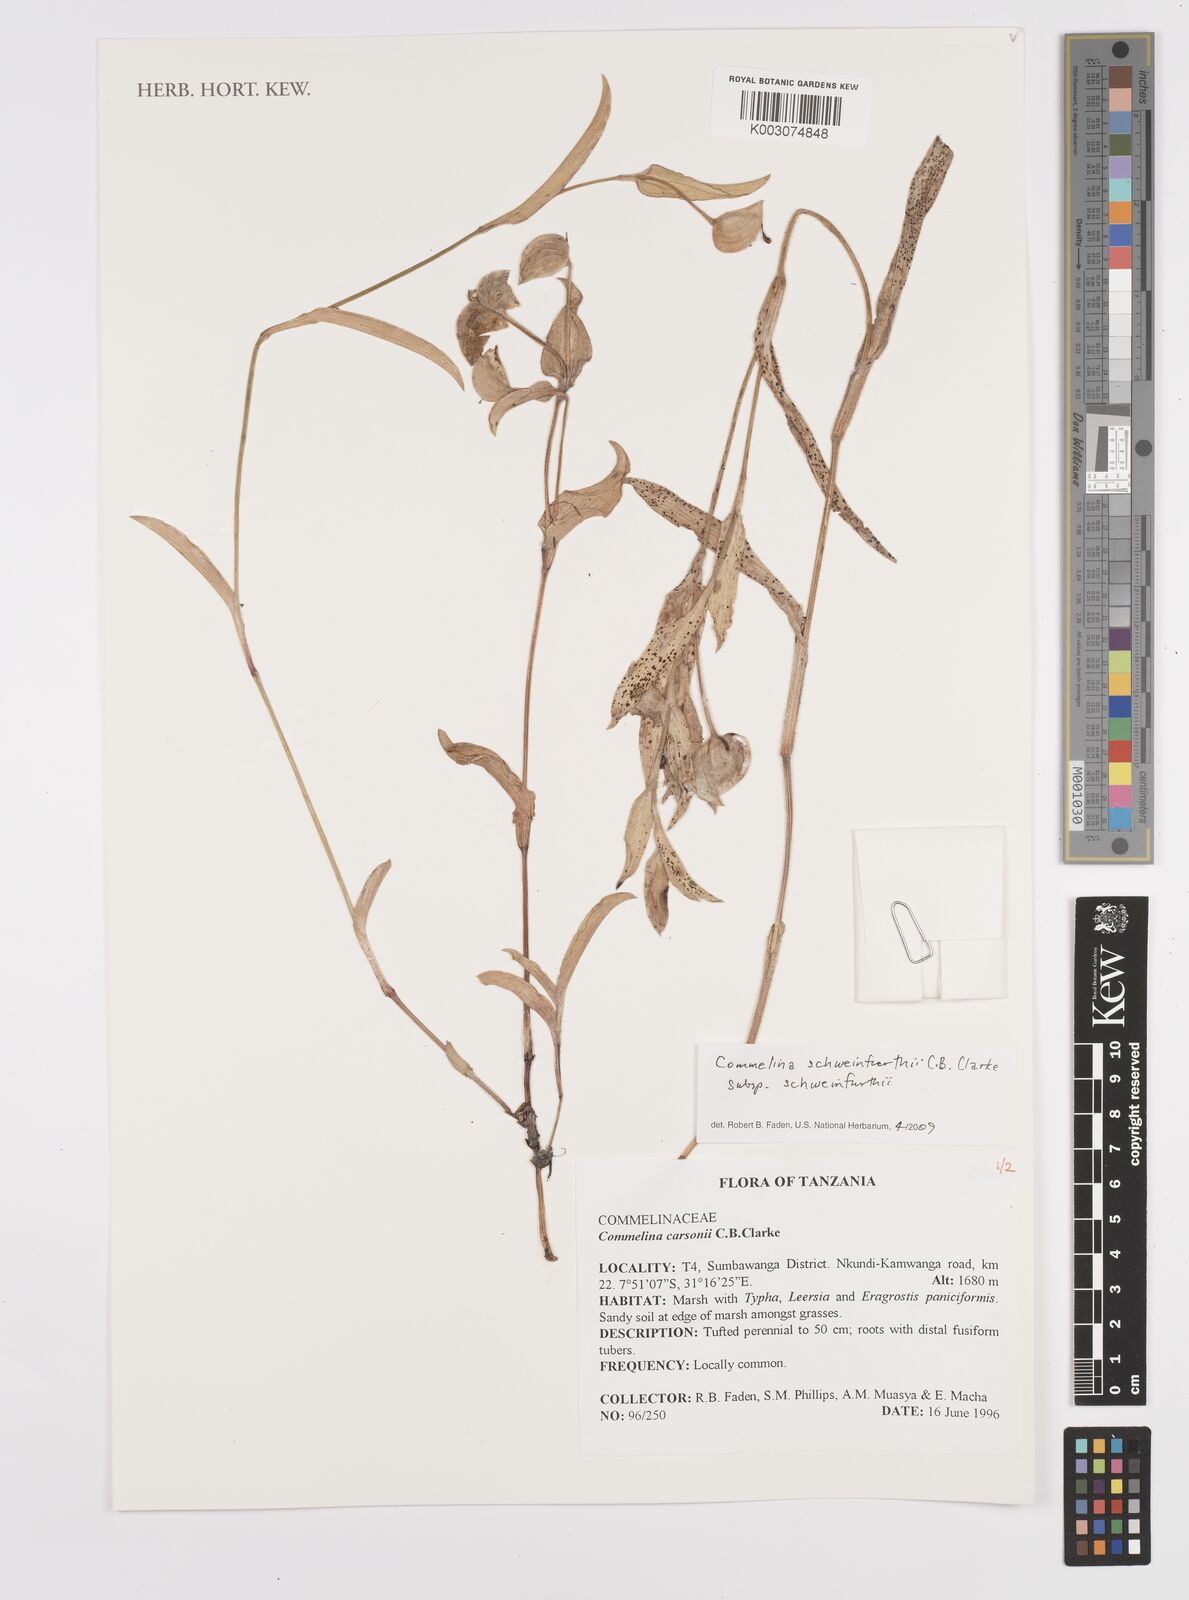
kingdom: Plantae
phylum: Tracheophyta
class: Liliopsida
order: Commelinales
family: Commelinaceae
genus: Commelina
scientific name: Commelina schweinfurthii
